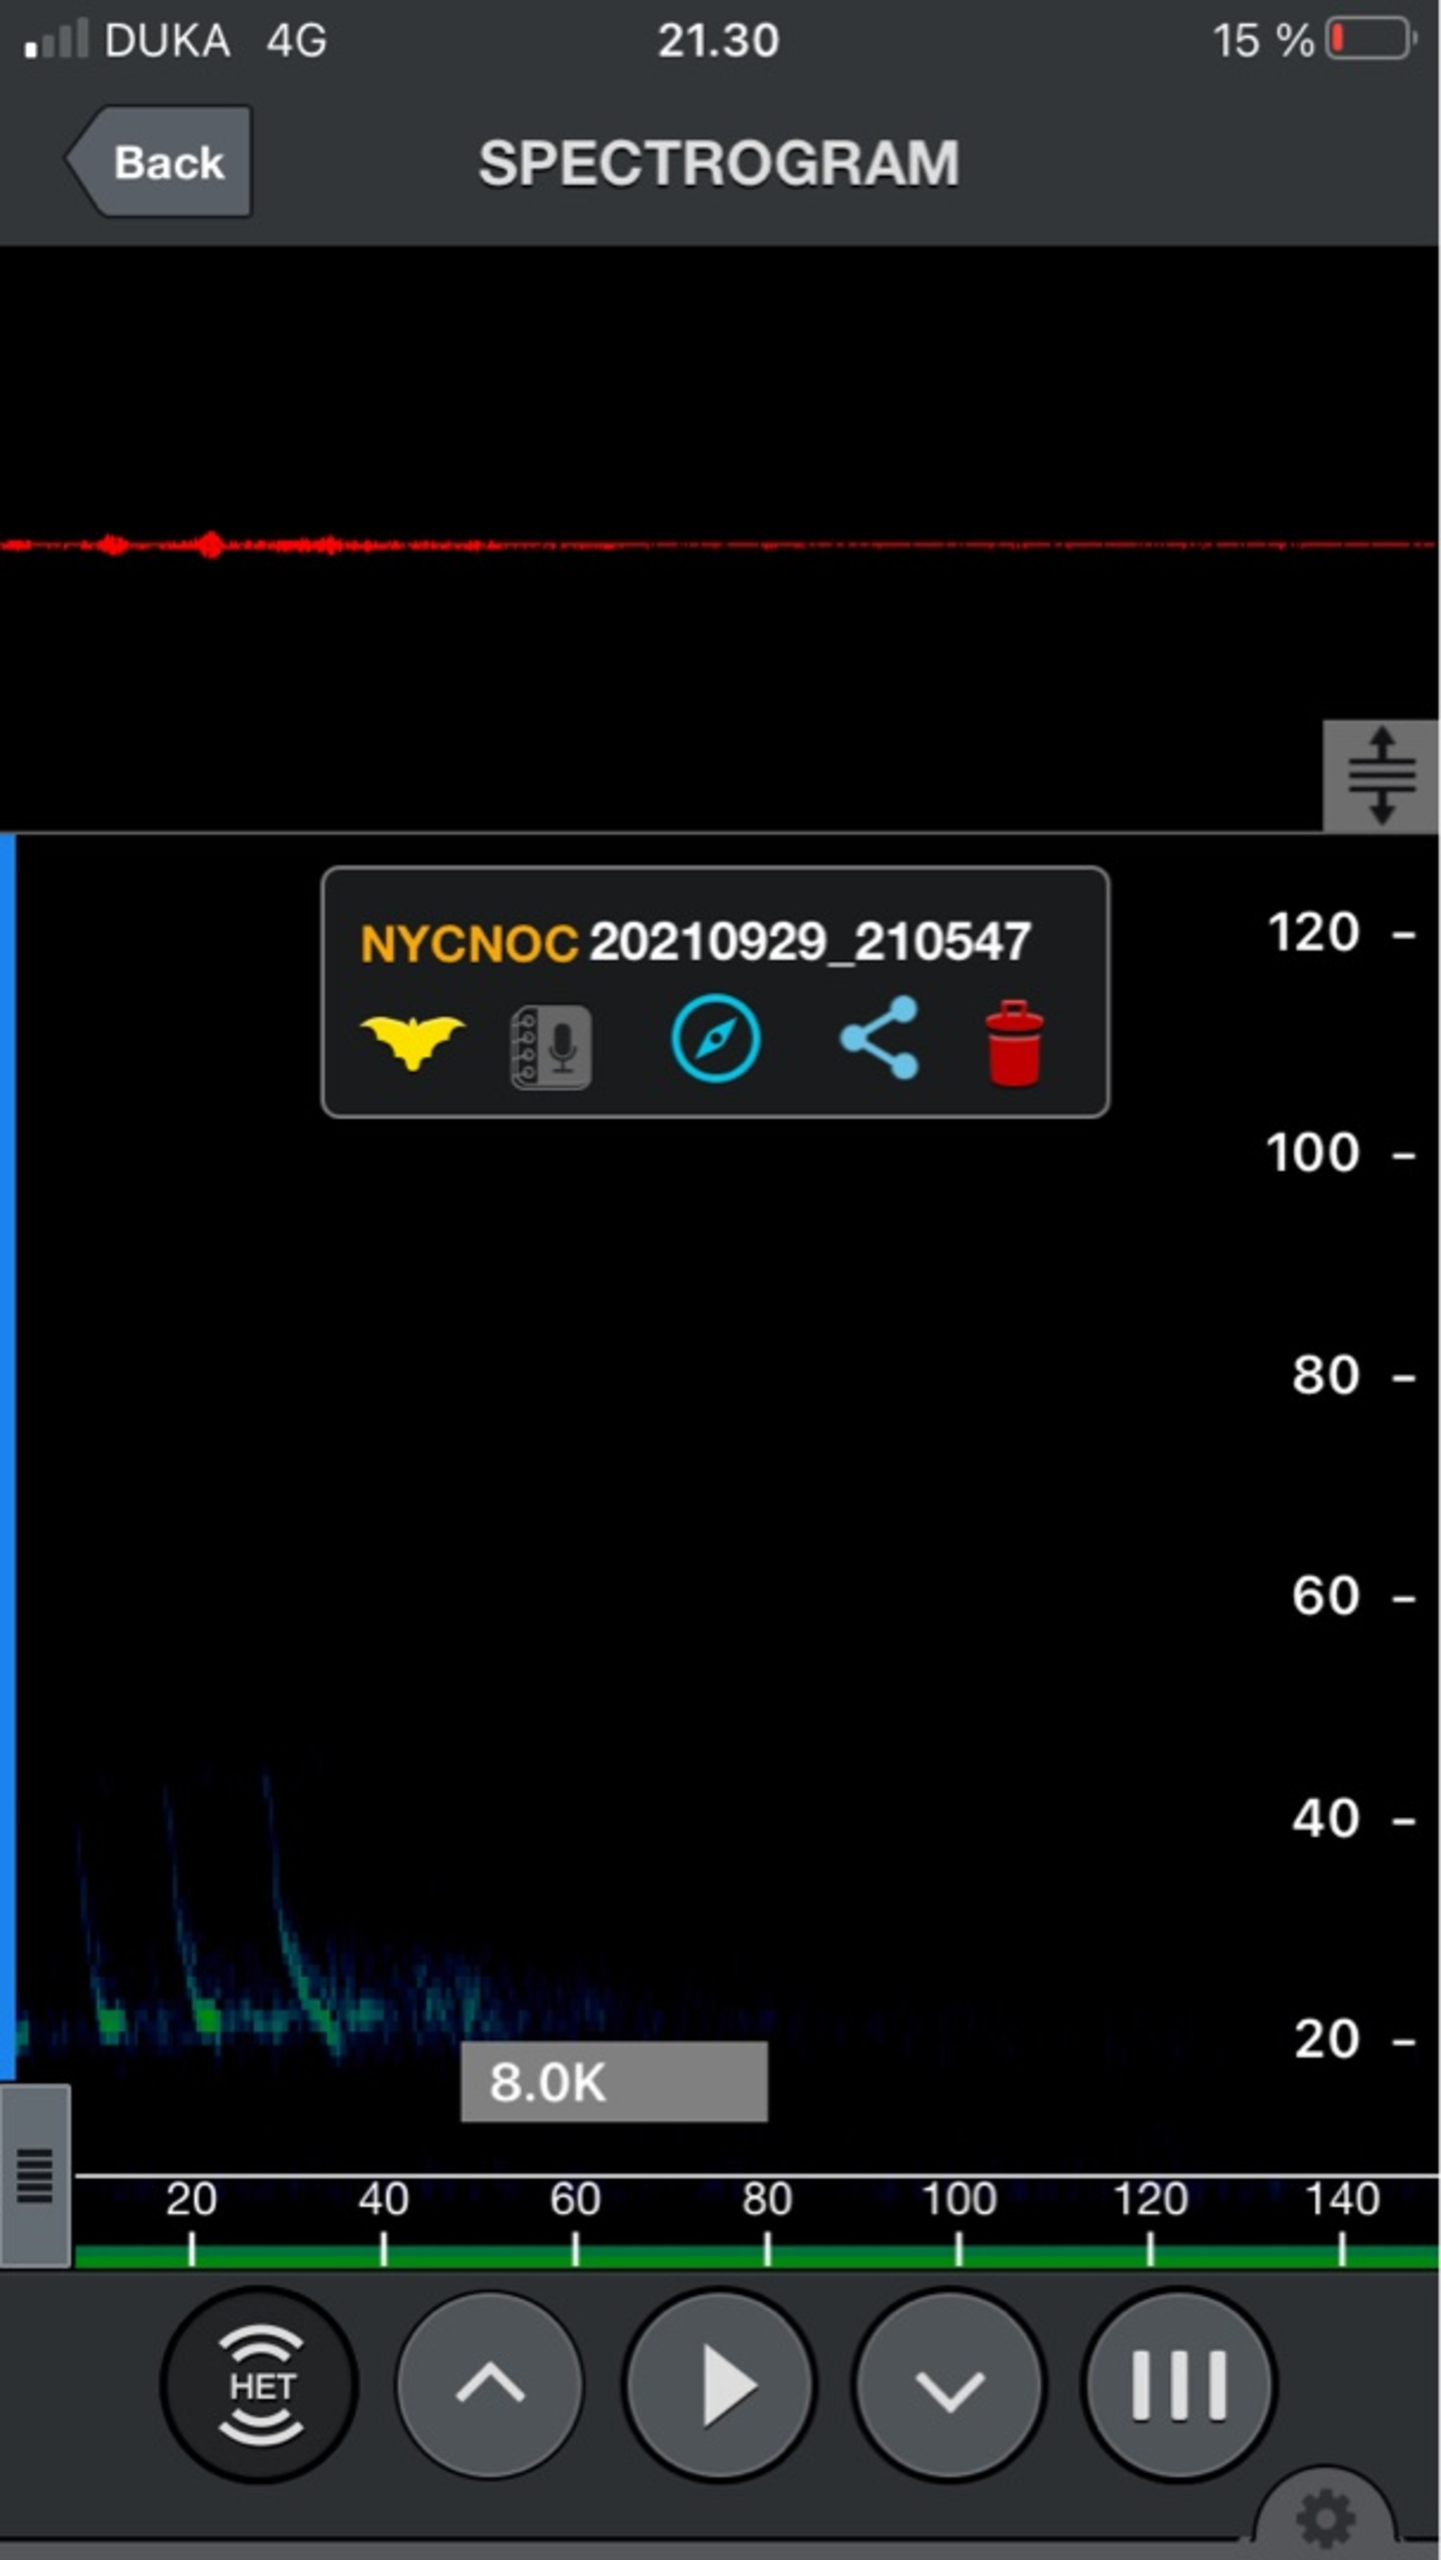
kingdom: Animalia
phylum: Chordata
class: Mammalia
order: Chiroptera
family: Vespertilionidae
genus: Nyctalus
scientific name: Nyctalus noctula
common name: Brunflagermus
